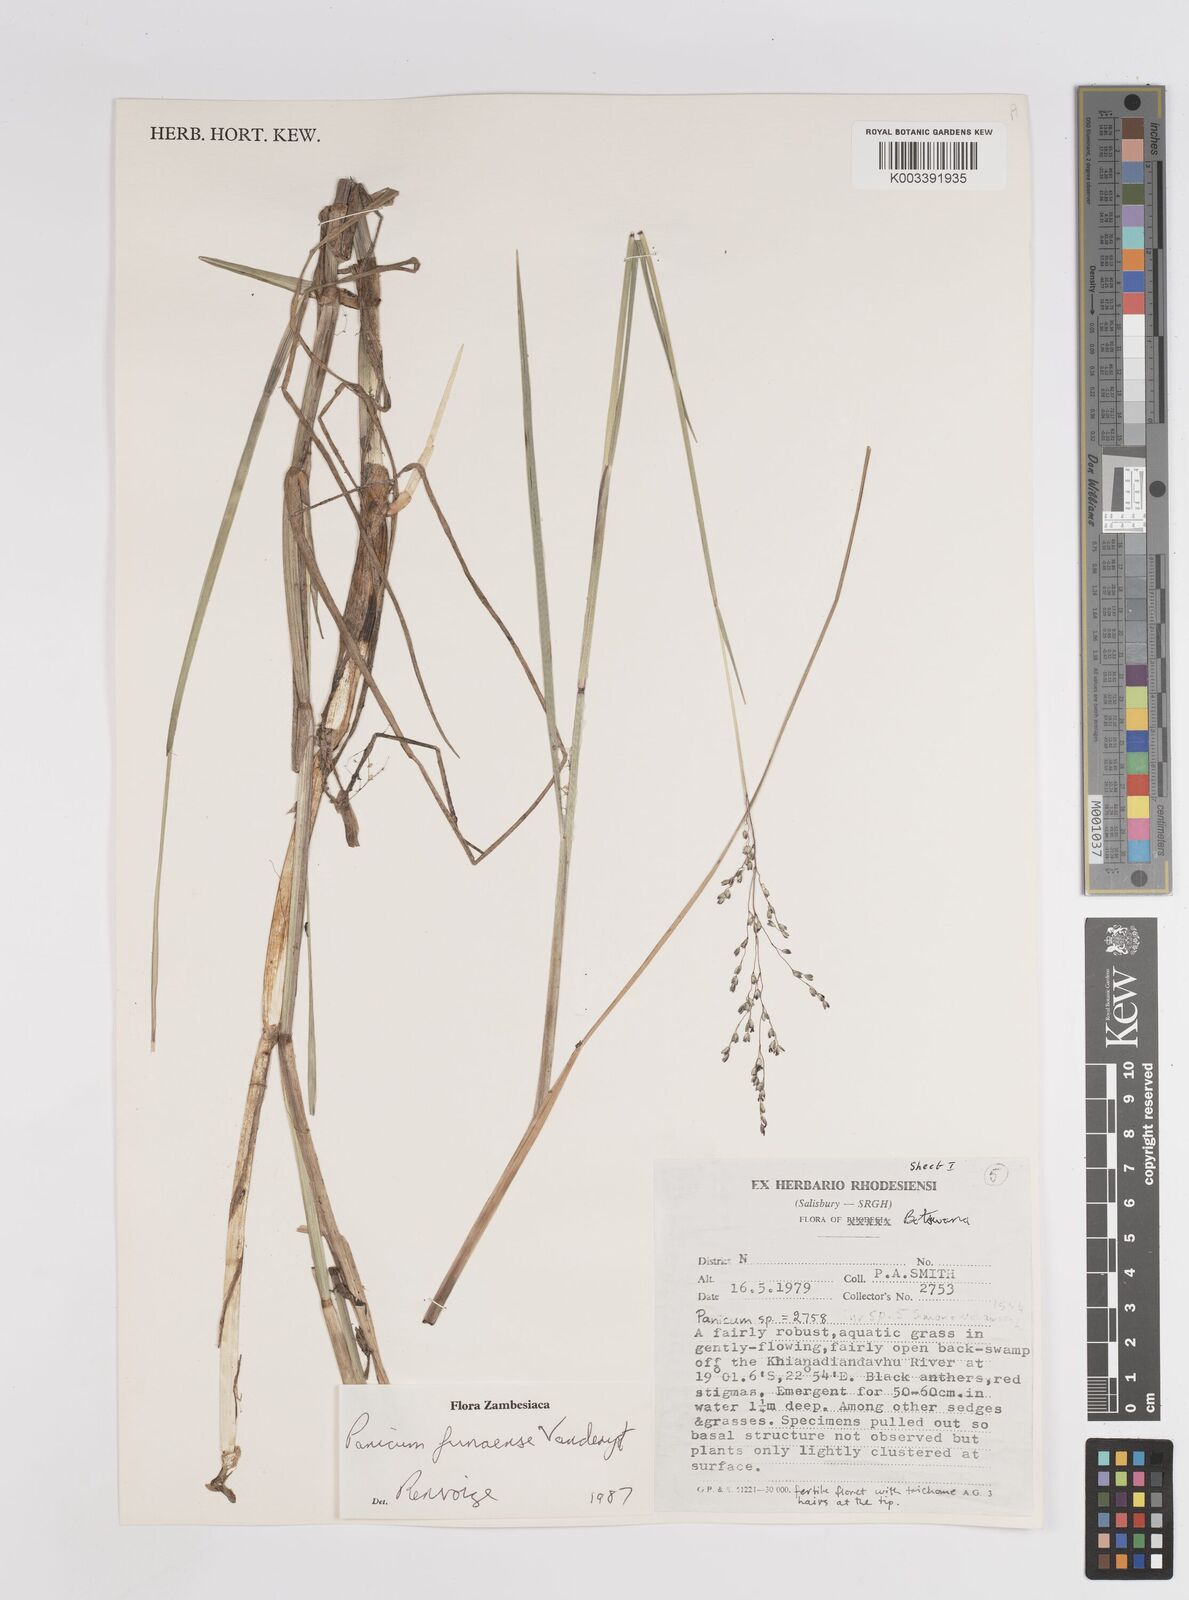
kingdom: Plantae
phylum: Tracheophyta
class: Liliopsida
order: Poales
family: Poaceae
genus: Panicum
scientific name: Panicum spongiosum
